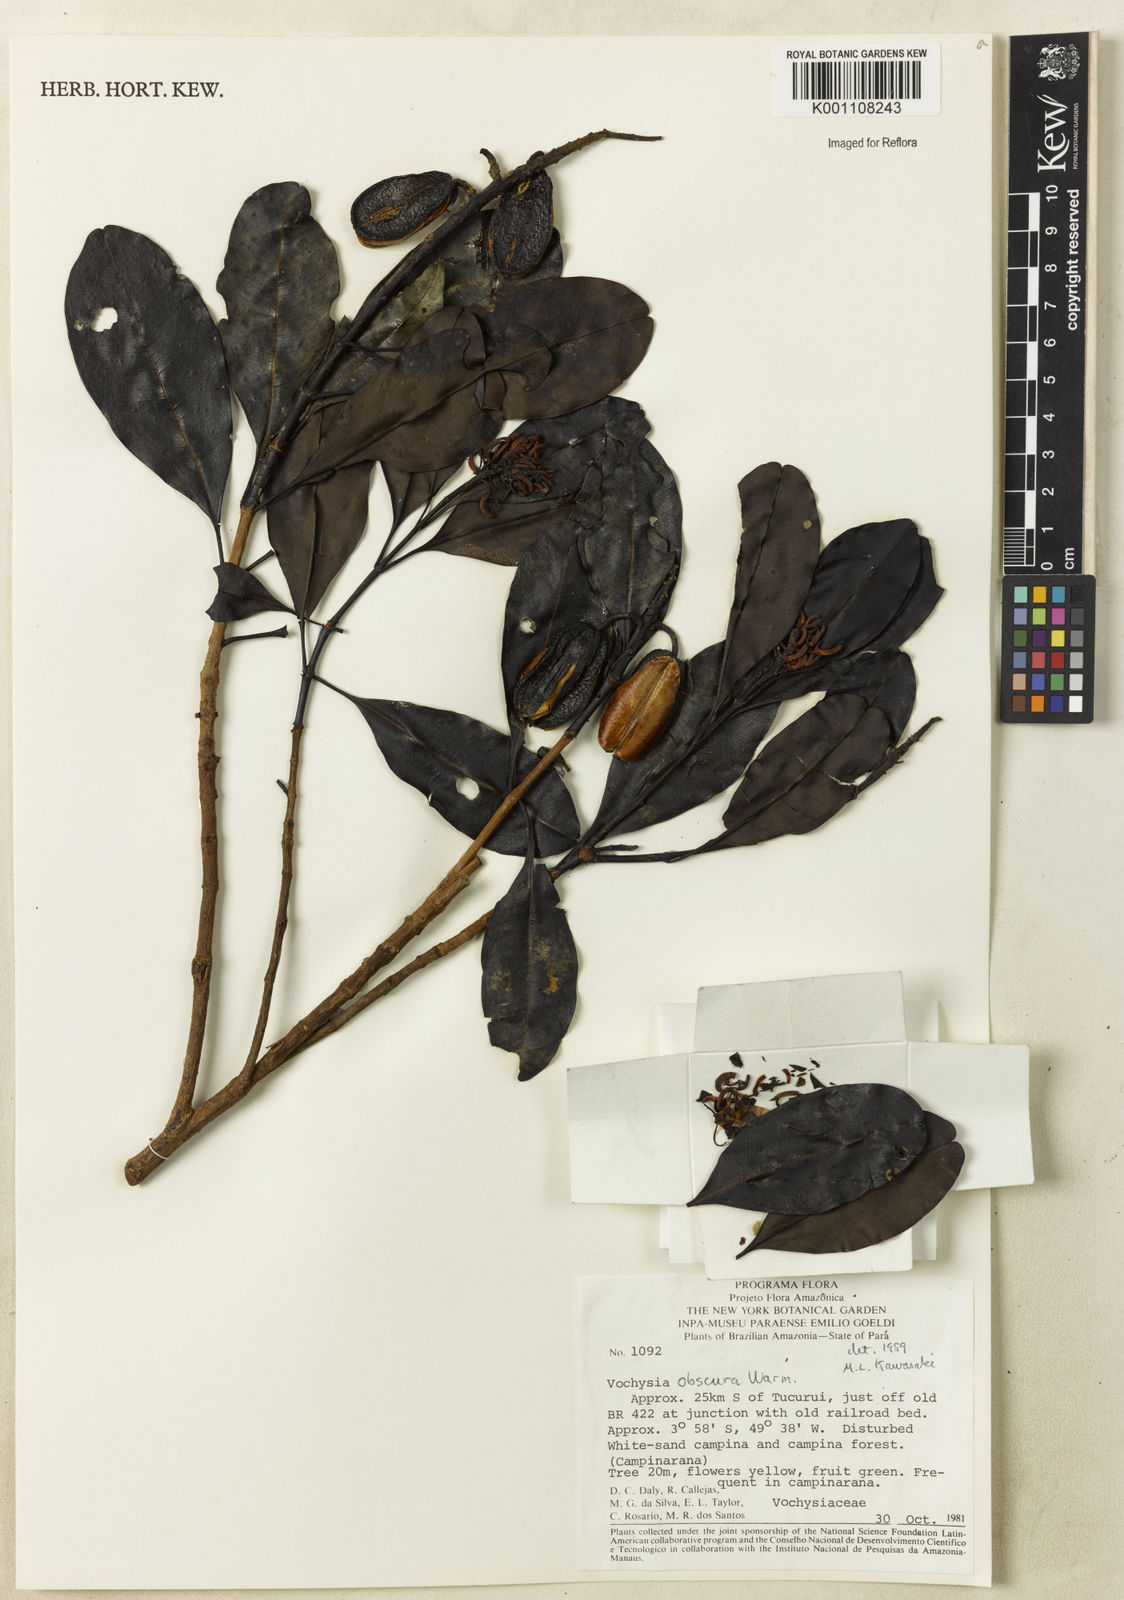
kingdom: Plantae
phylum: Tracheophyta
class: Magnoliopsida
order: Myrtales
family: Vochysiaceae
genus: Vochysia
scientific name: Vochysia obscura
